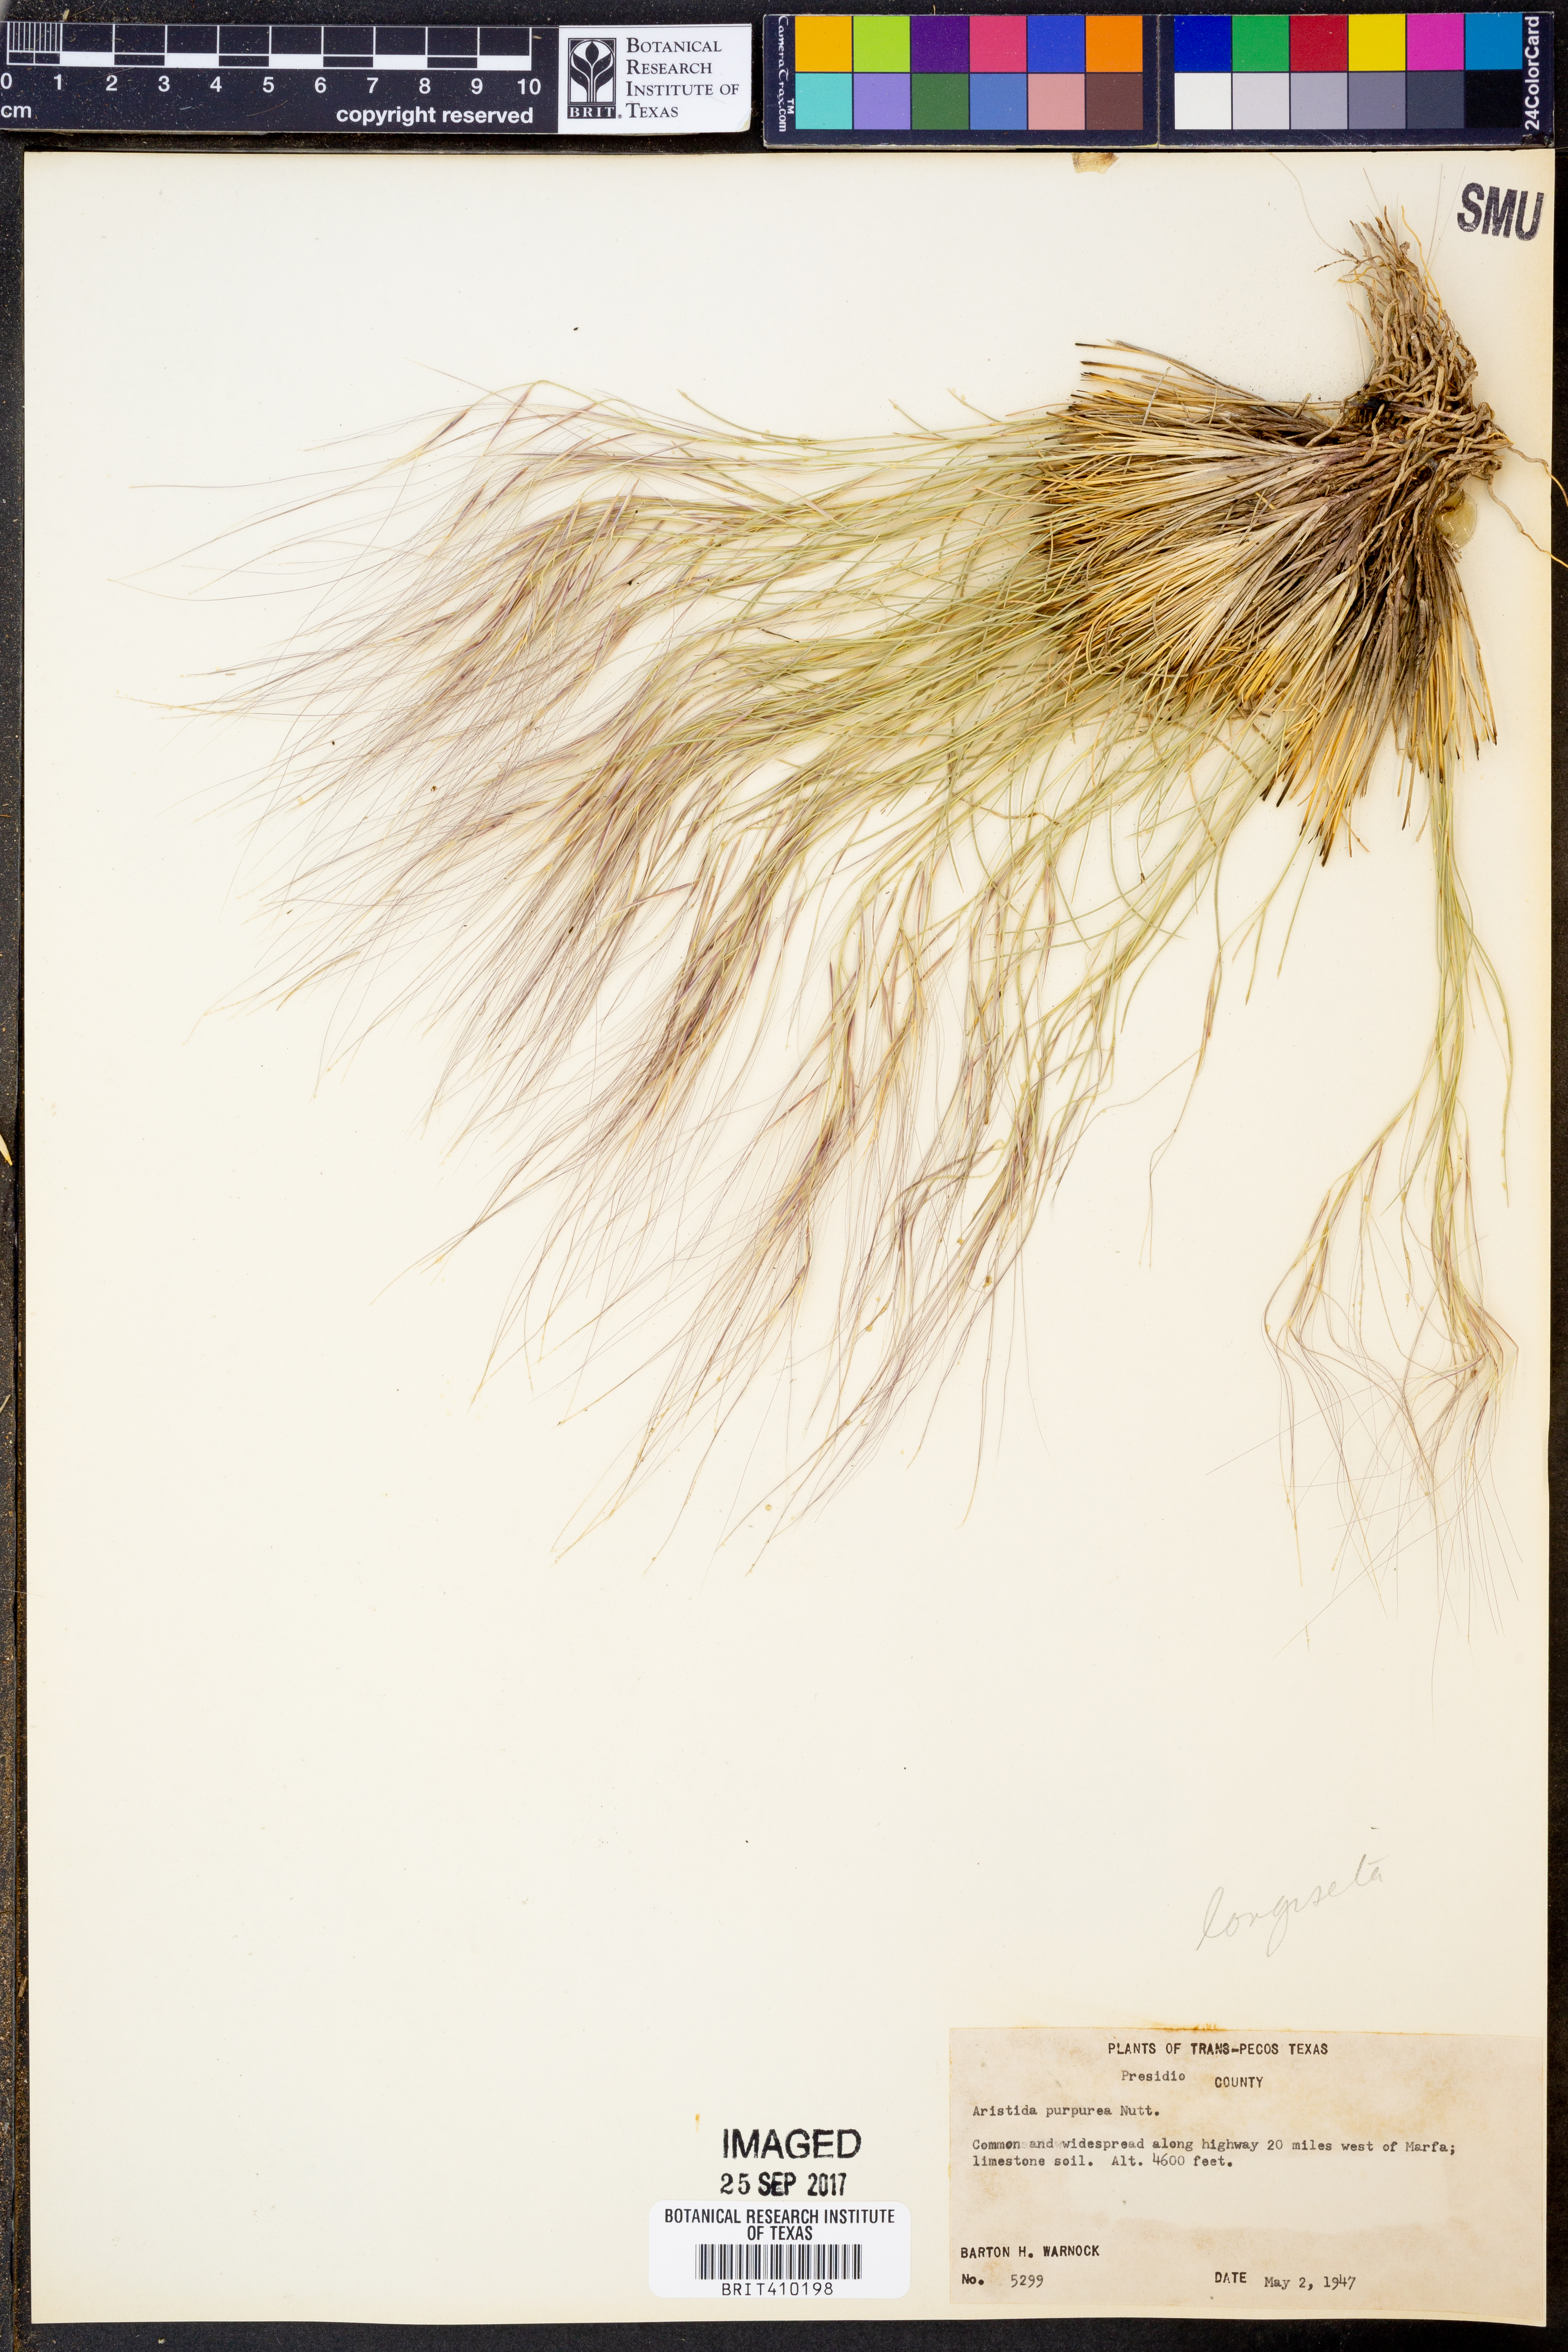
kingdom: Plantae
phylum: Tracheophyta
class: Liliopsida
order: Poales
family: Poaceae
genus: Aristida
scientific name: Aristida purpurea
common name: Purple threeawn
